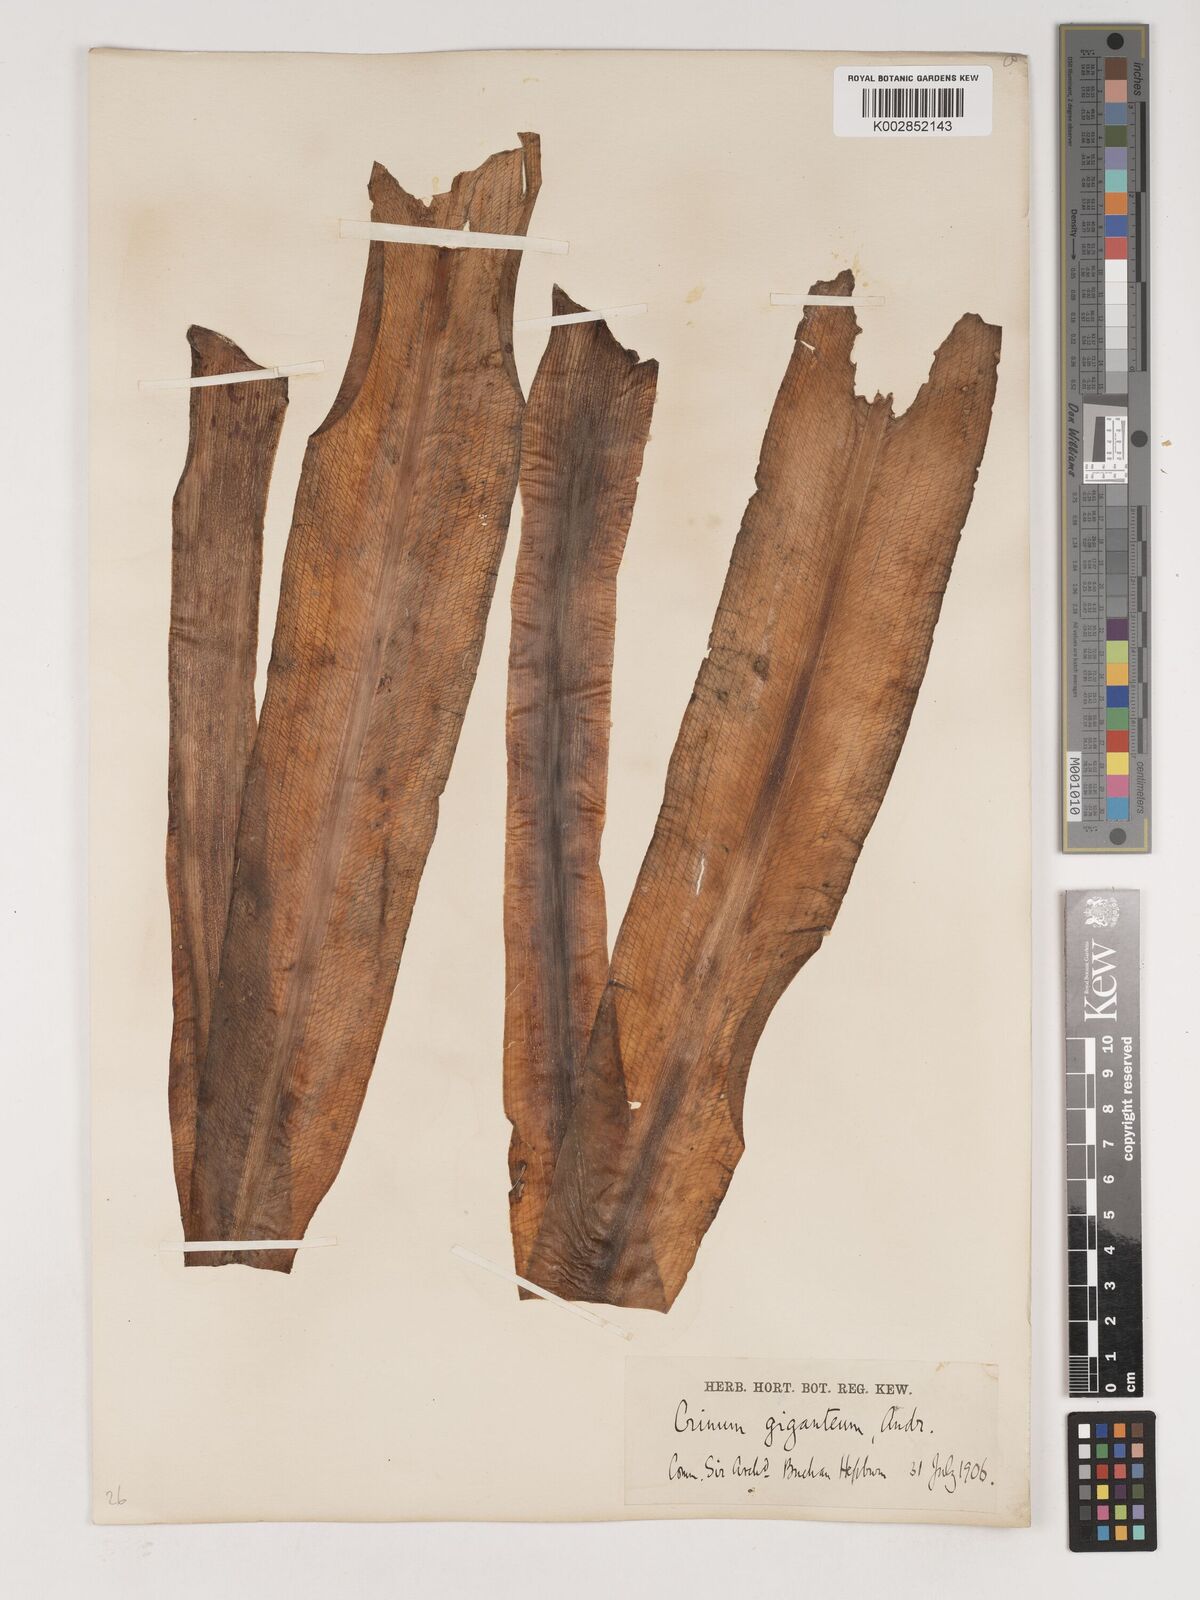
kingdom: Plantae
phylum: Tracheophyta
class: Liliopsida
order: Asparagales
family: Amaryllidaceae
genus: Crinum
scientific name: Crinum jagus
